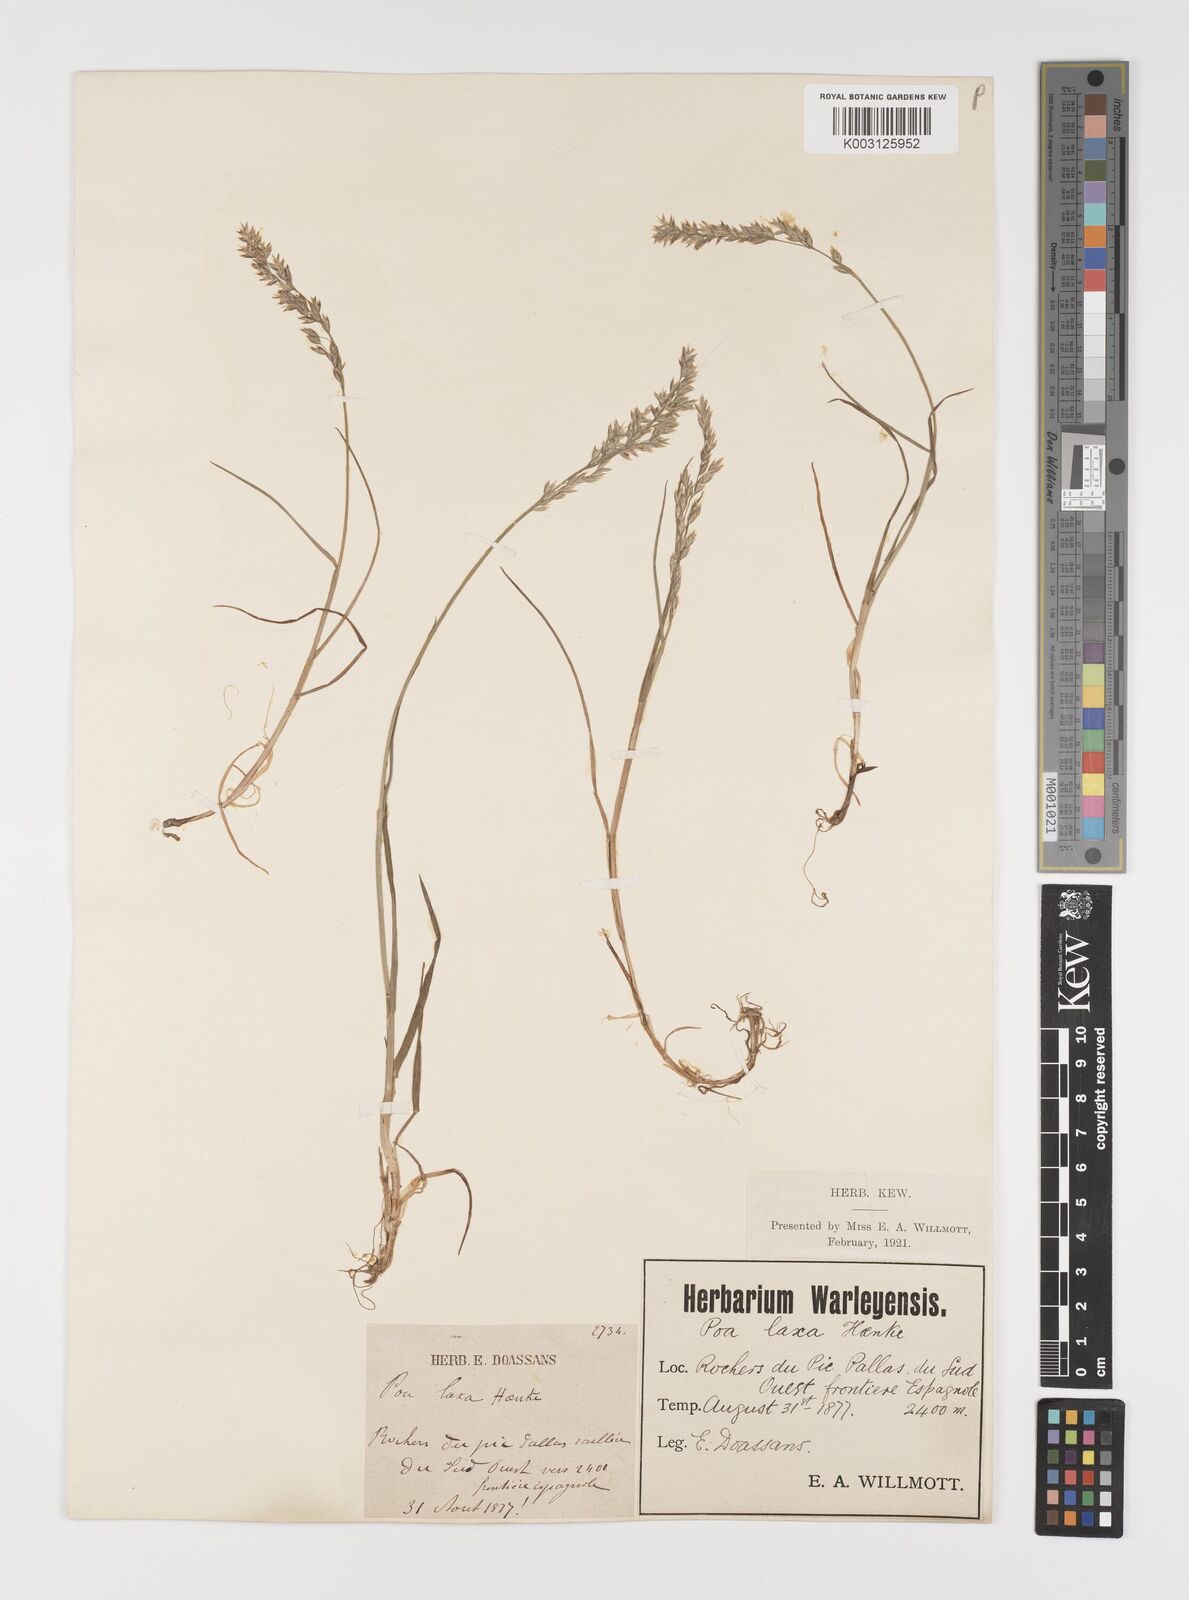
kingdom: Plantae
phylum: Tracheophyta
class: Liliopsida
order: Poales
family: Poaceae
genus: Poa
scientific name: Poa laxa
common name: Lax bluegrass
